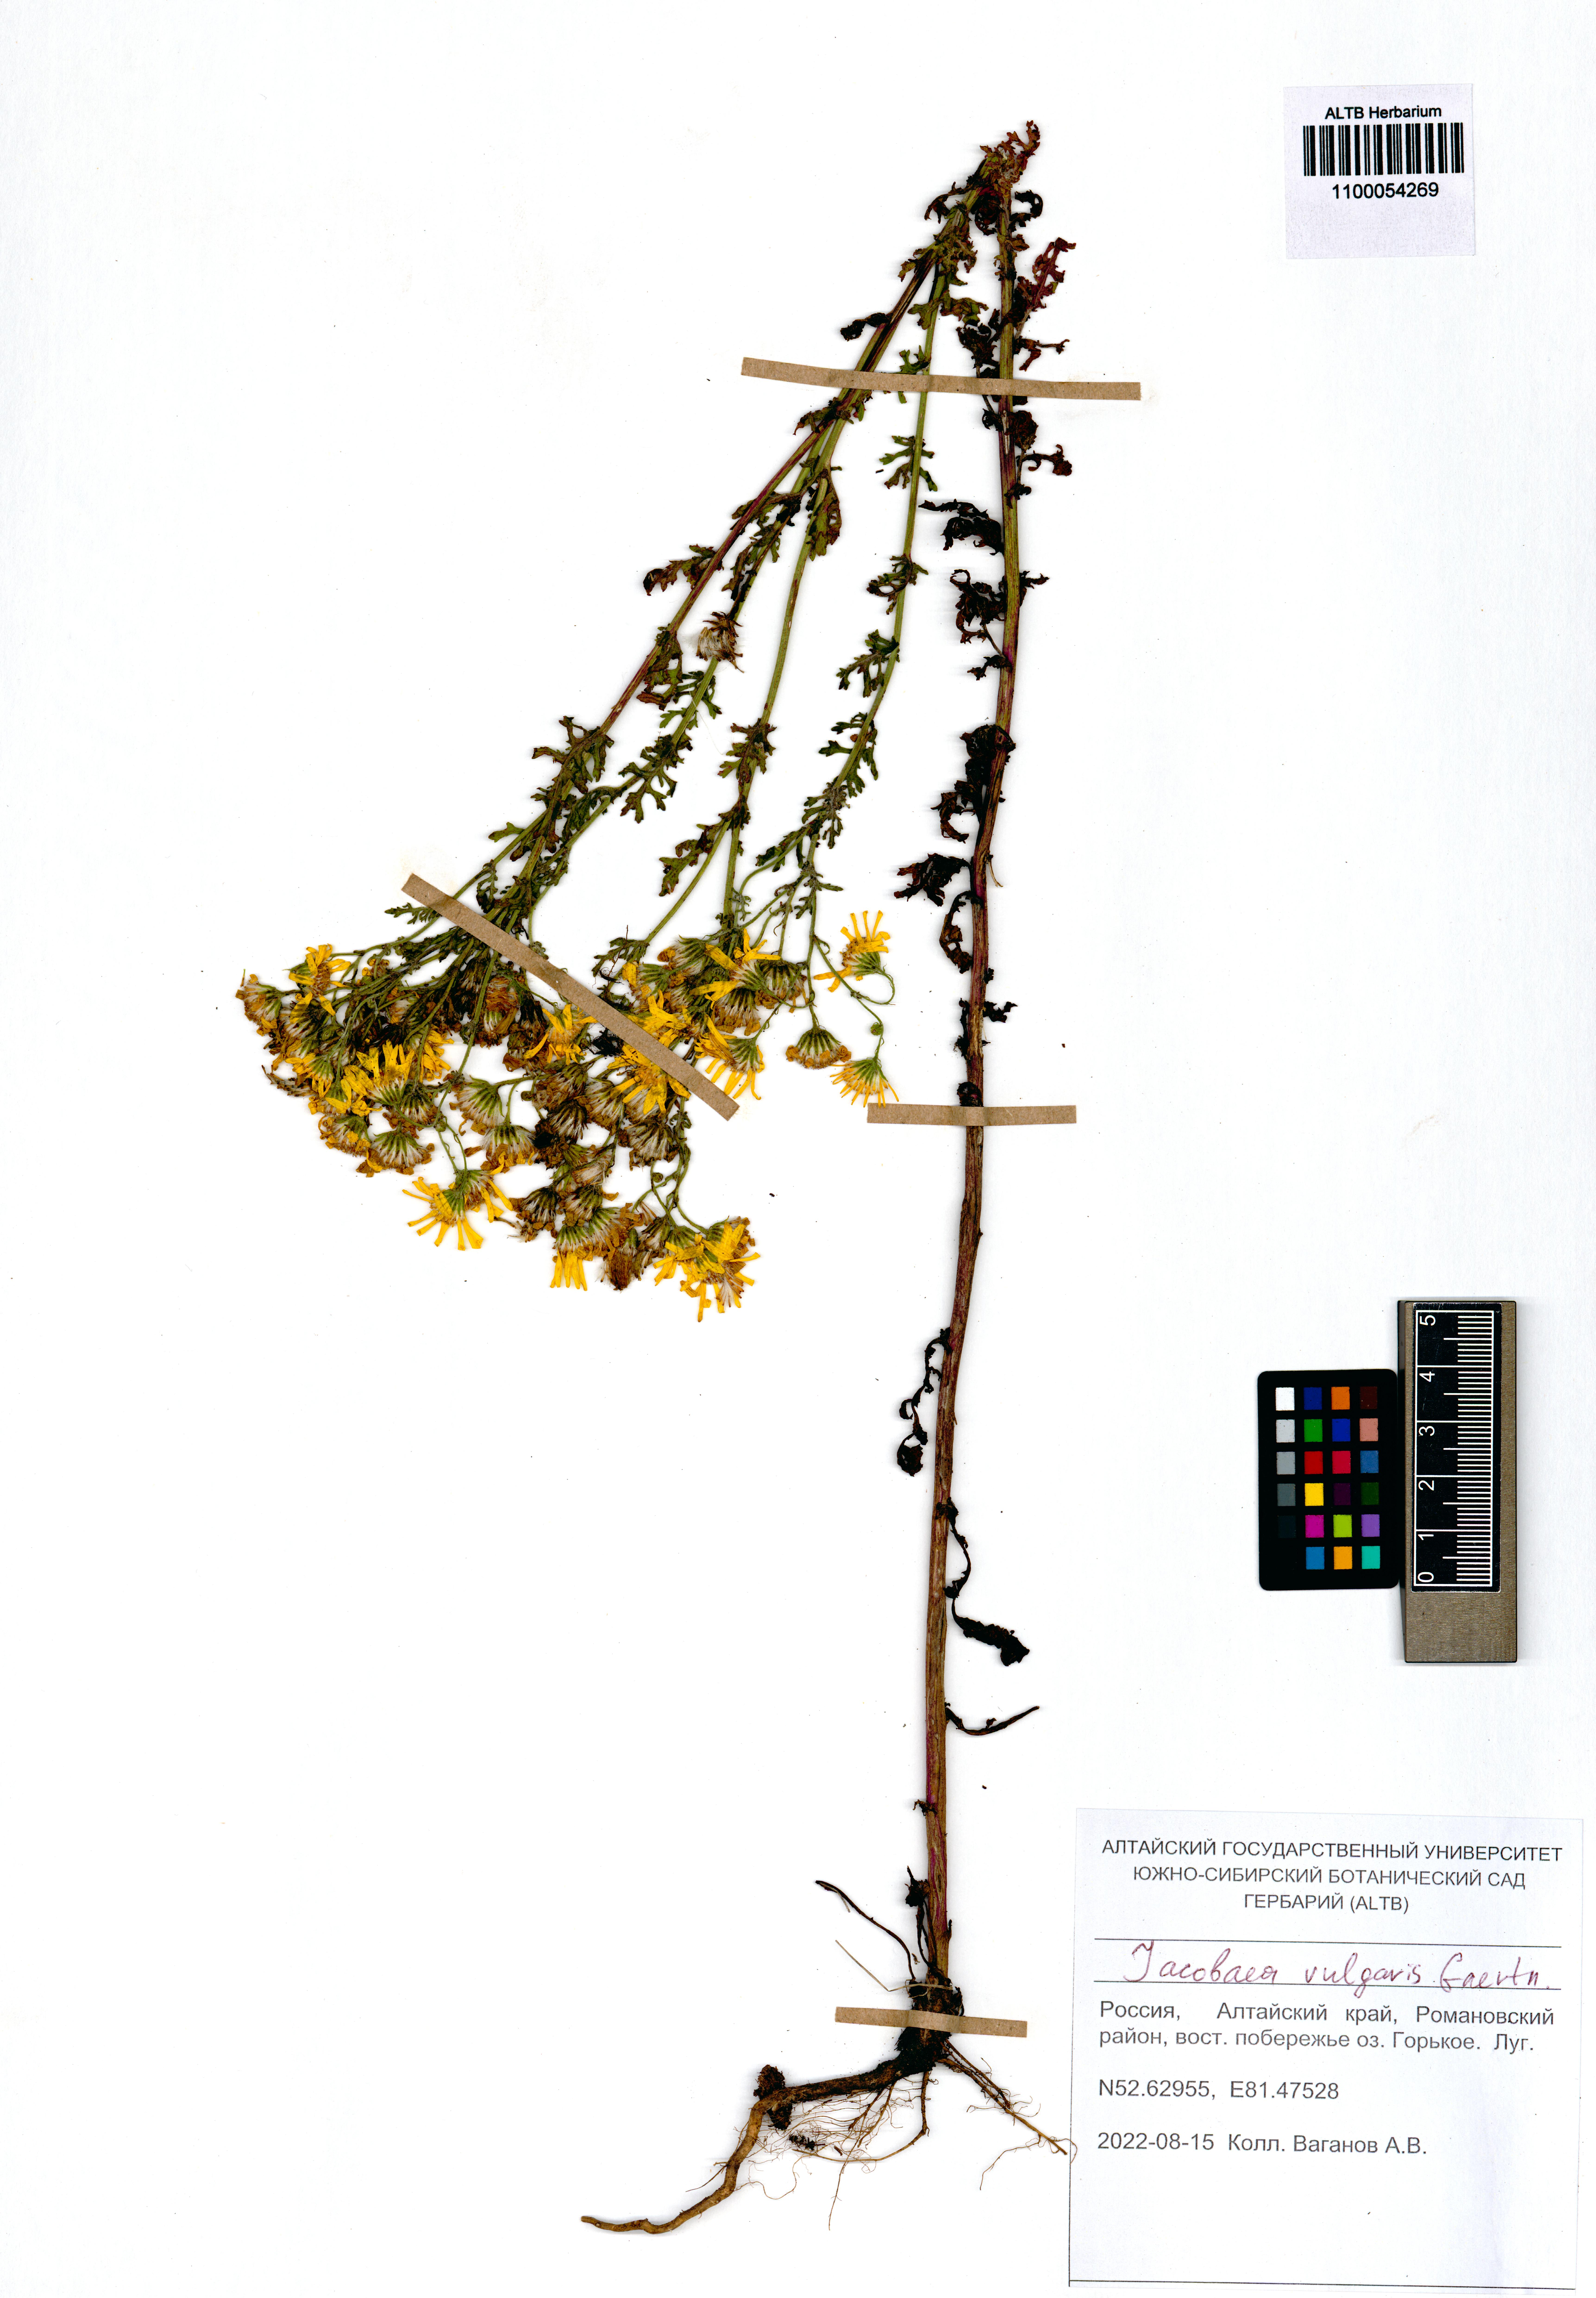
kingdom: Plantae
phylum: Tracheophyta
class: Magnoliopsida
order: Asterales
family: Asteraceae
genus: Jacobaea
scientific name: Jacobaea vulgaris
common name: Stinking willie
